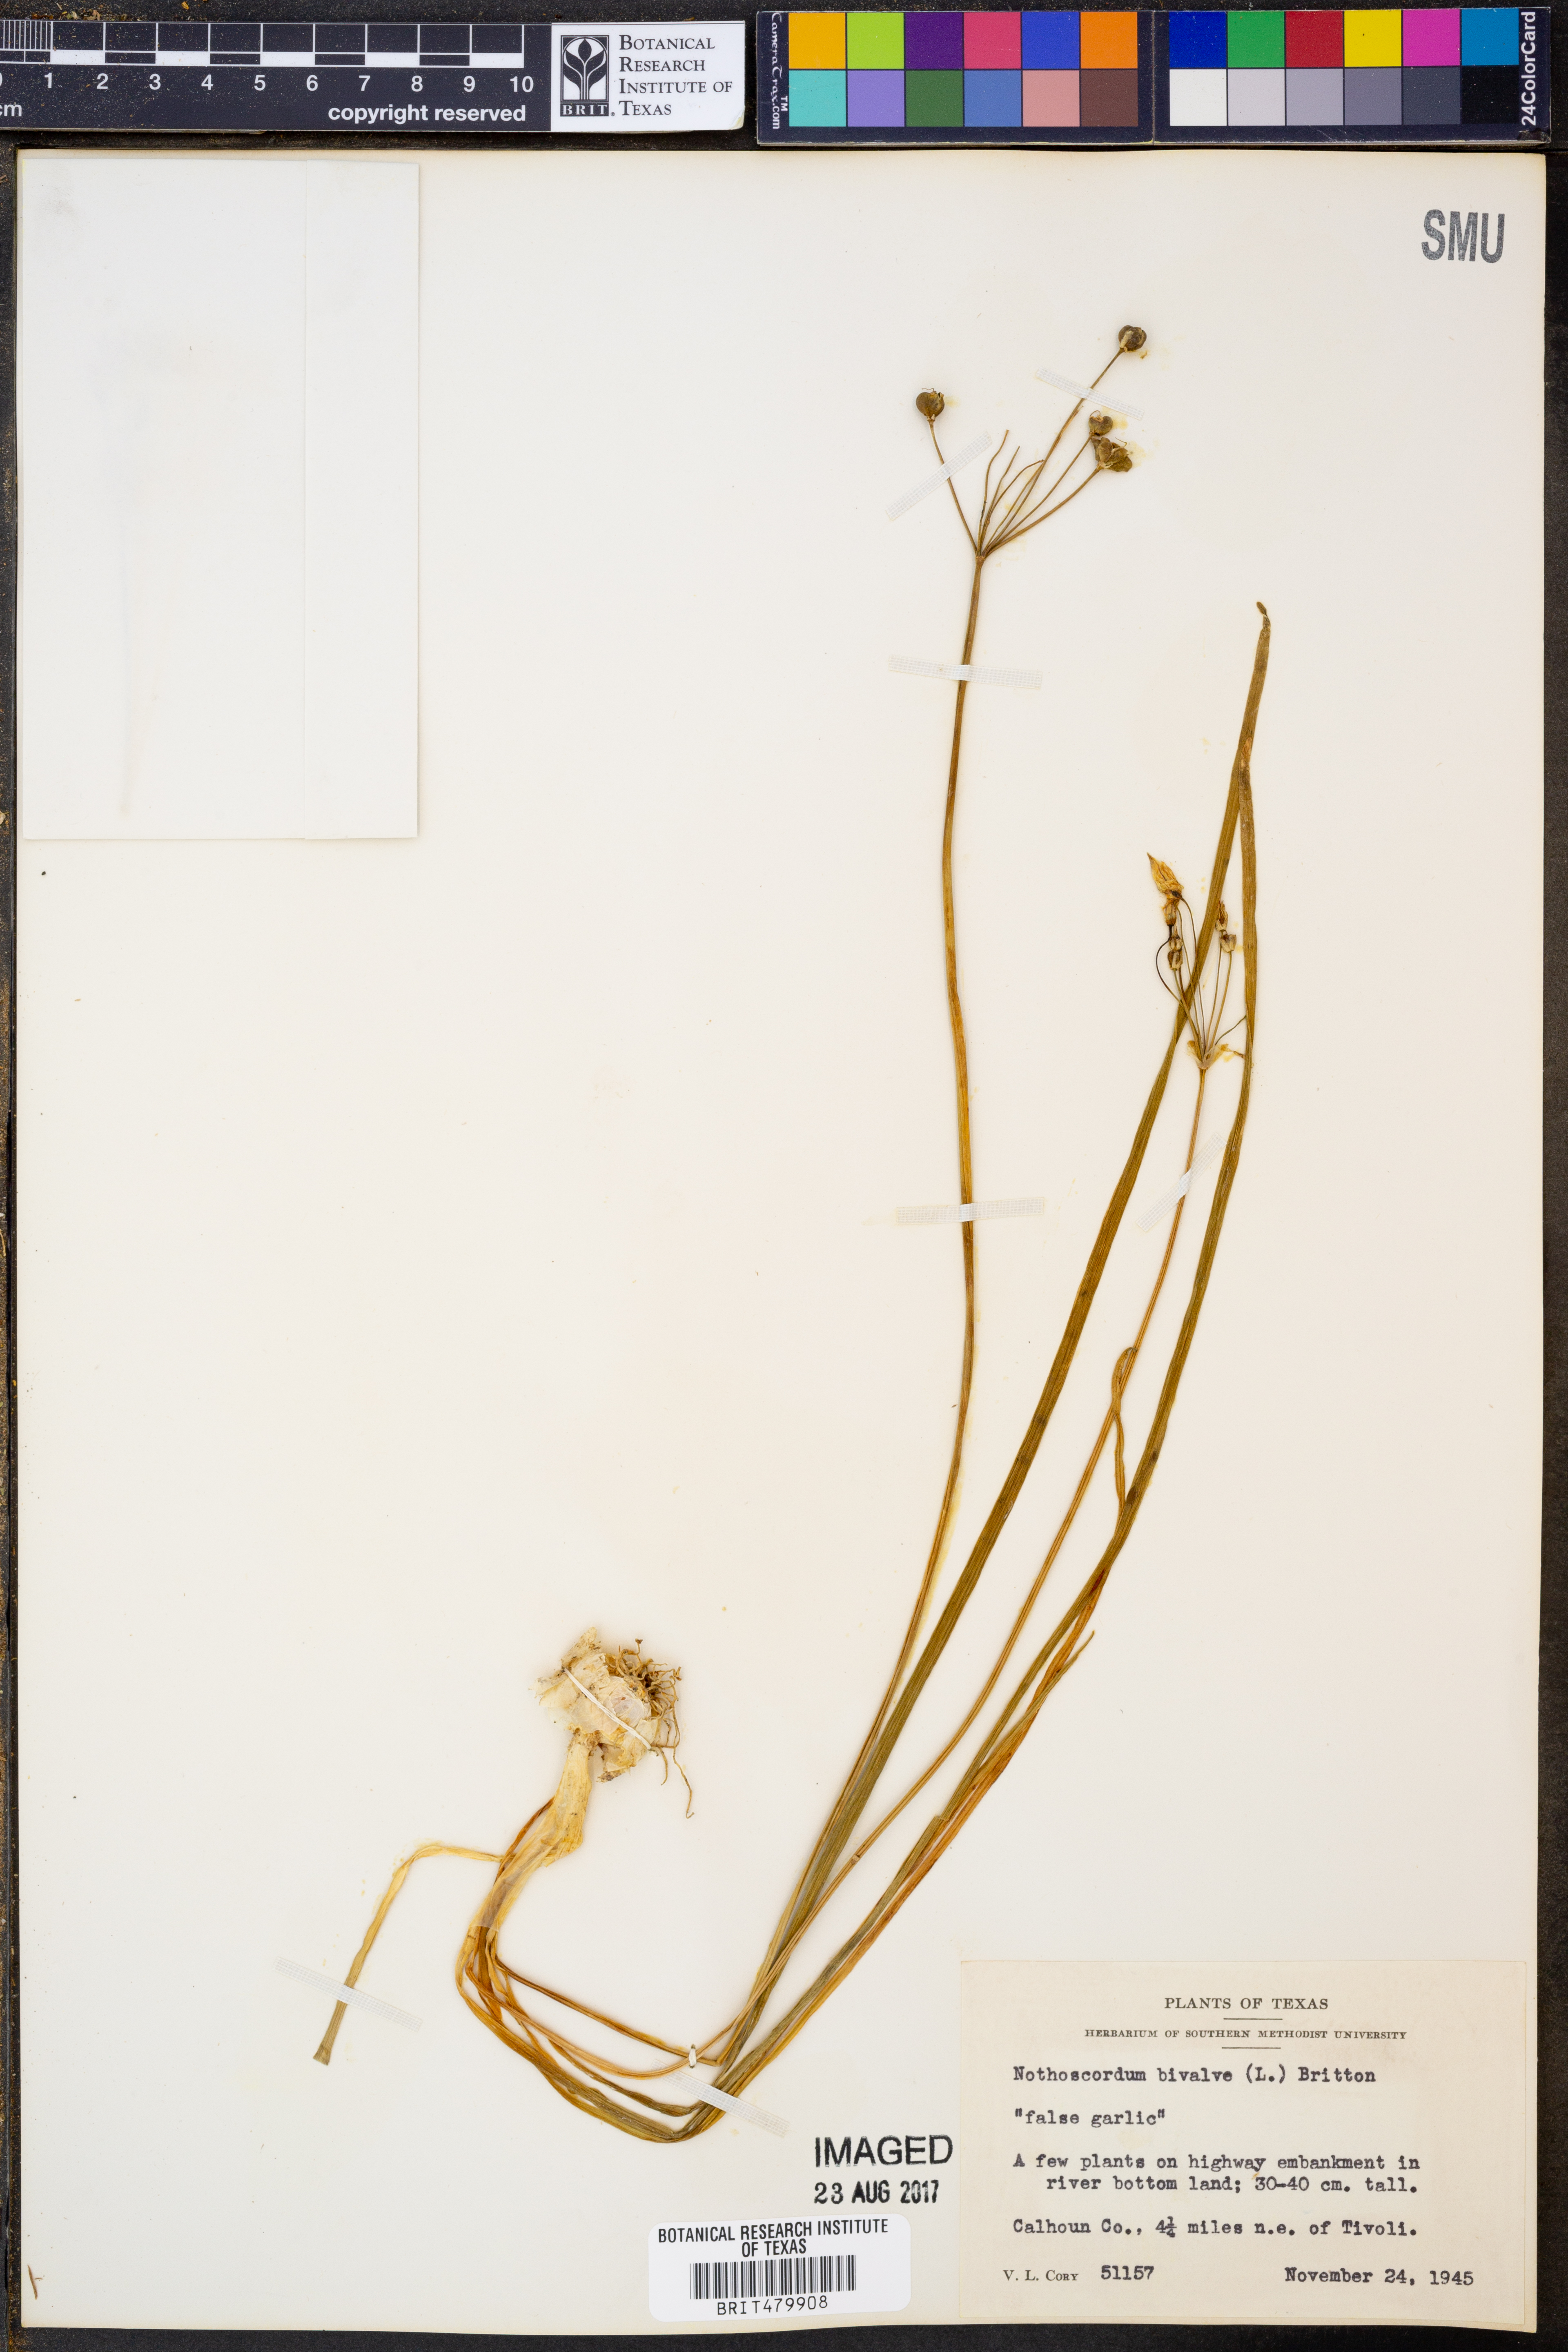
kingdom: Plantae
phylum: Tracheophyta
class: Liliopsida
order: Asparagales
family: Amaryllidaceae
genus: Nothoscordum
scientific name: Nothoscordum bivalve
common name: Crow-poison
